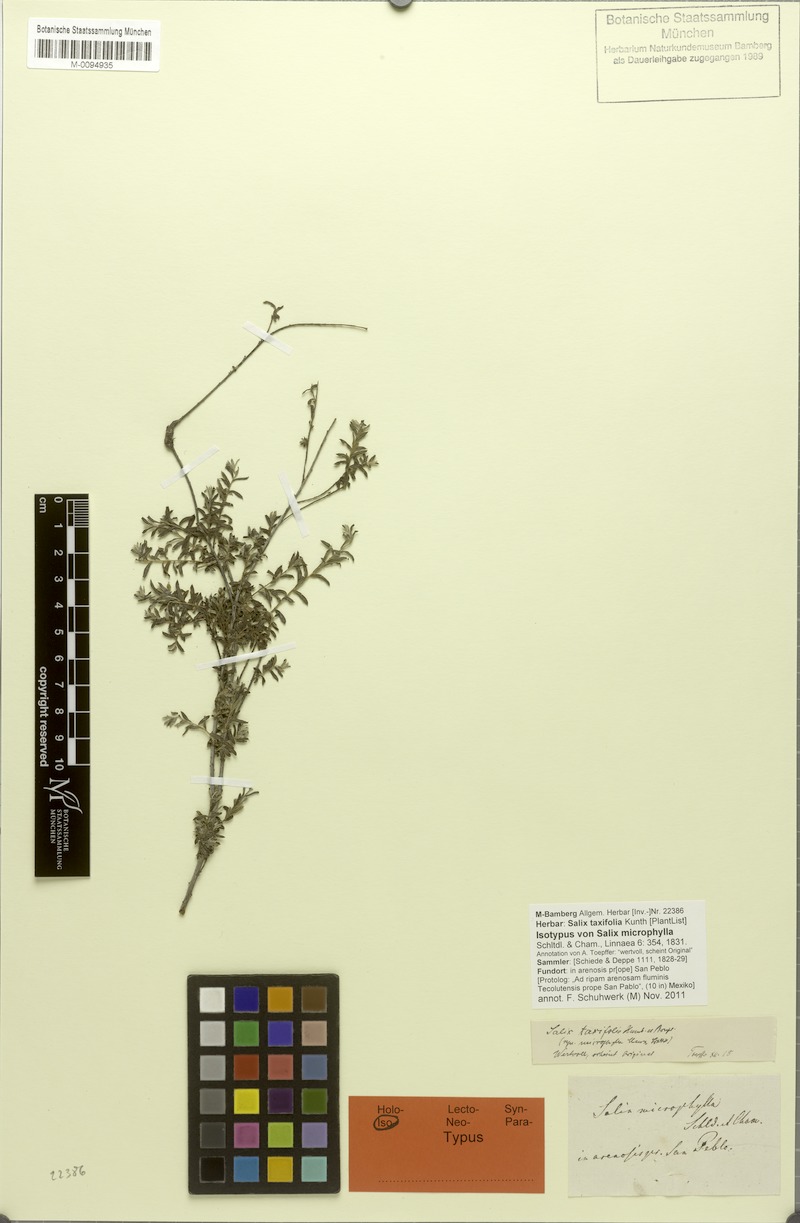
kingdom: Plantae
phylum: Tracheophyta
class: Magnoliopsida
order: Malpighiales
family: Salicaceae
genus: Salix
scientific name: Salix taxifolia
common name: Yew-leaf willow
